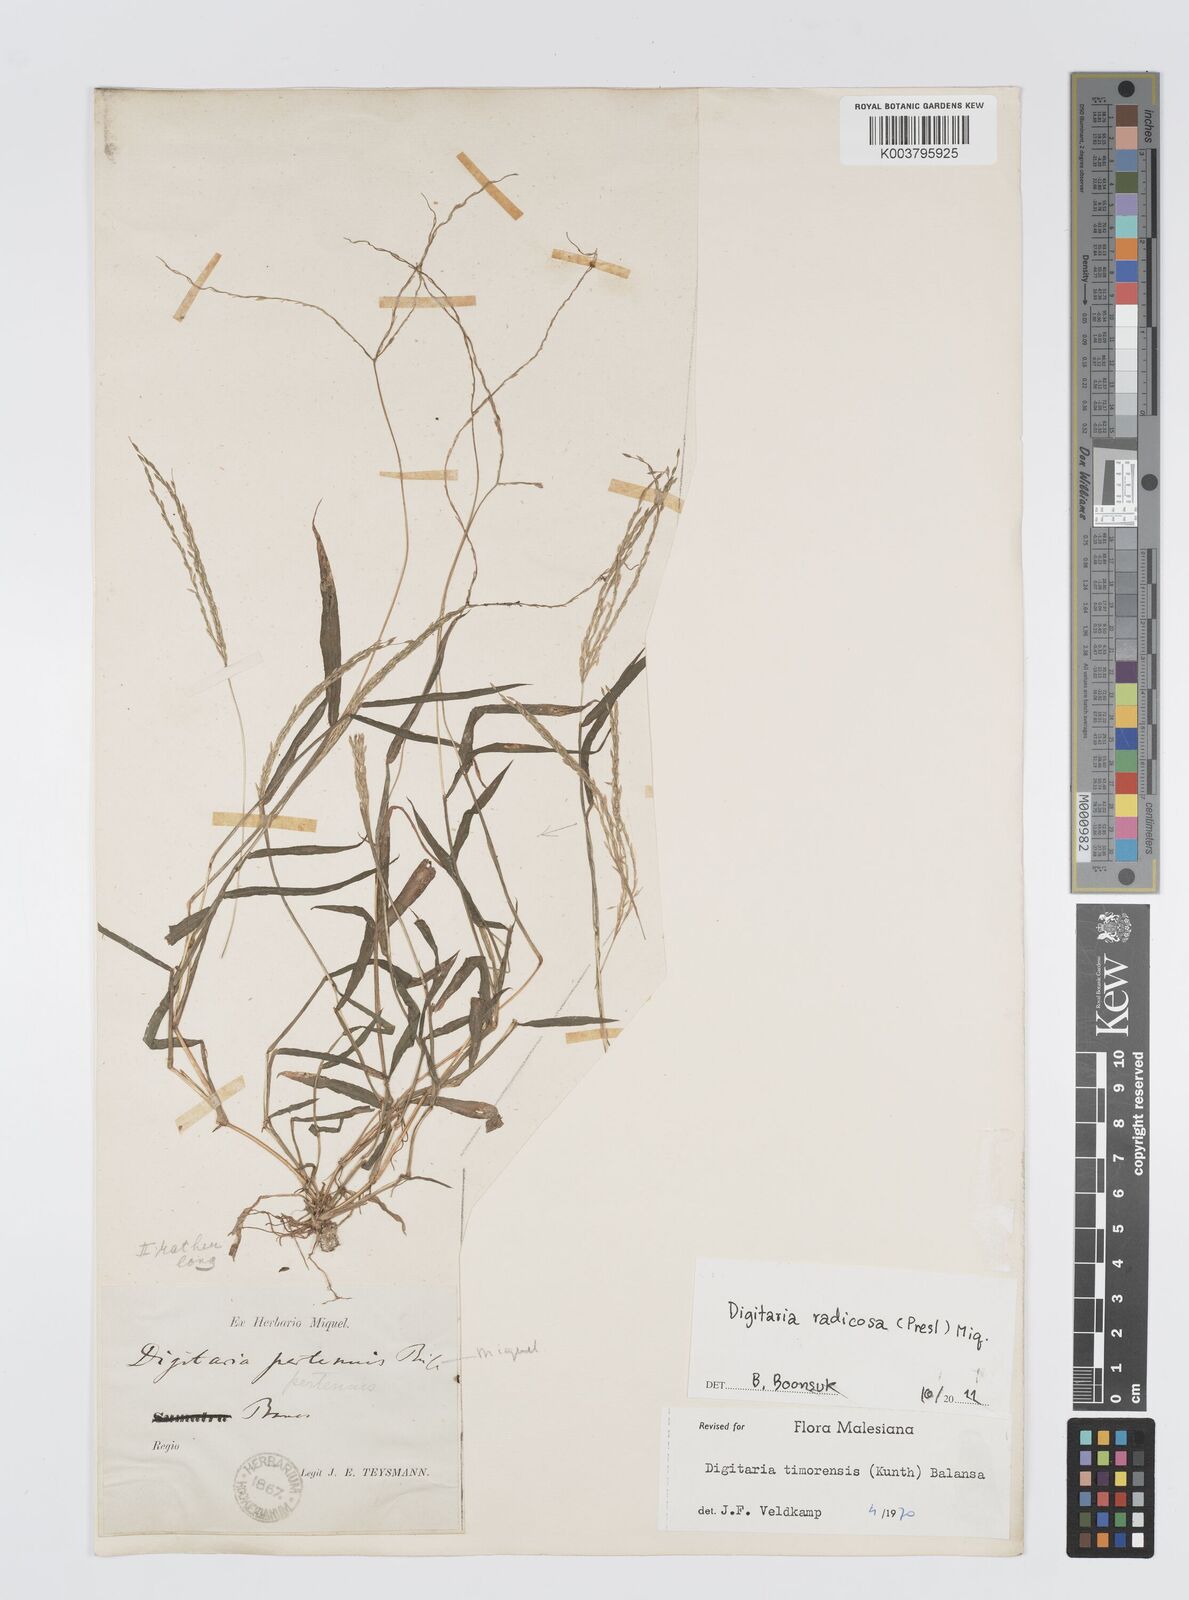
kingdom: Plantae
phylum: Tracheophyta
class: Liliopsida
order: Poales
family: Poaceae
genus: Digitaria
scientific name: Digitaria radicosa
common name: Trailing crabgrass
